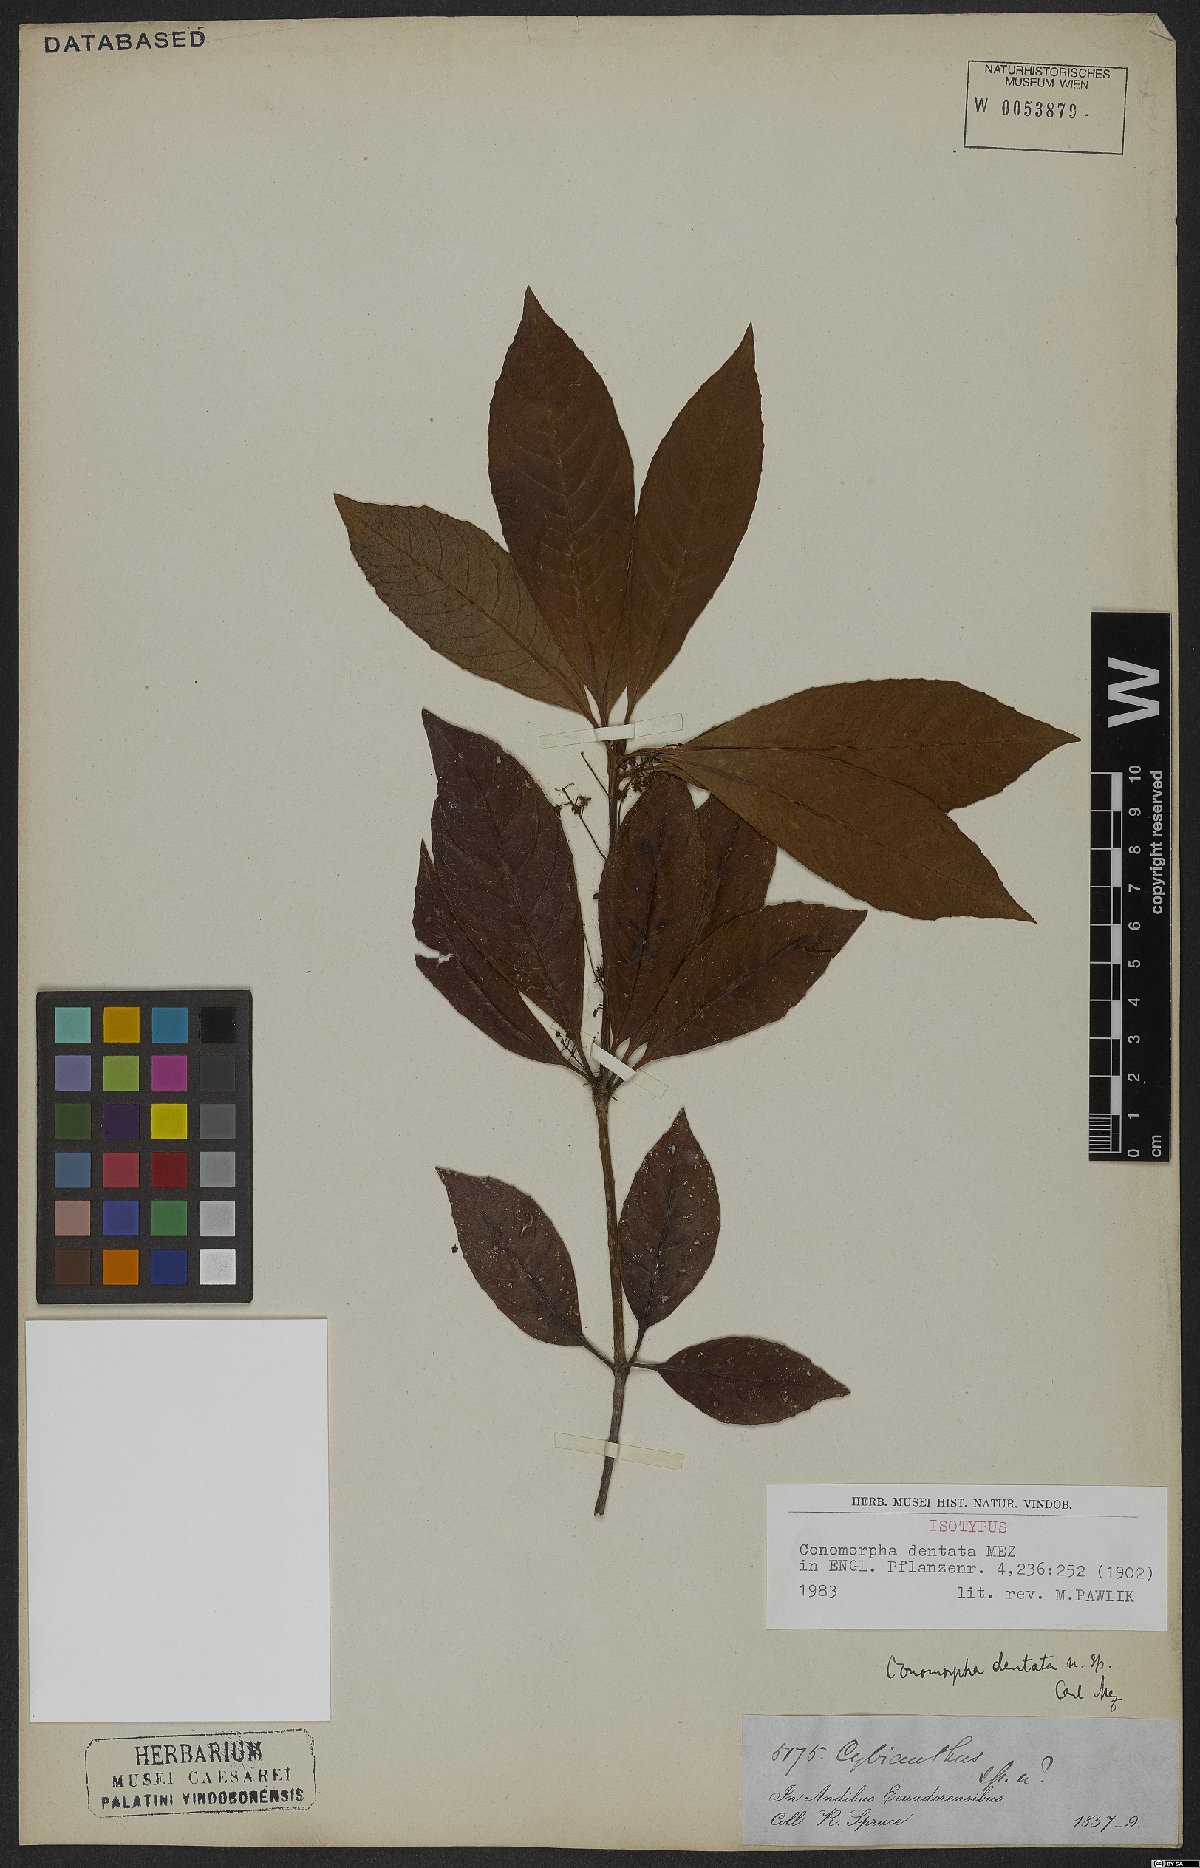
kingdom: Plantae
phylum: Tracheophyta
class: Magnoliopsida
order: Ericales
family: Primulaceae
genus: Cybianthus
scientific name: Cybianthus pastensis
